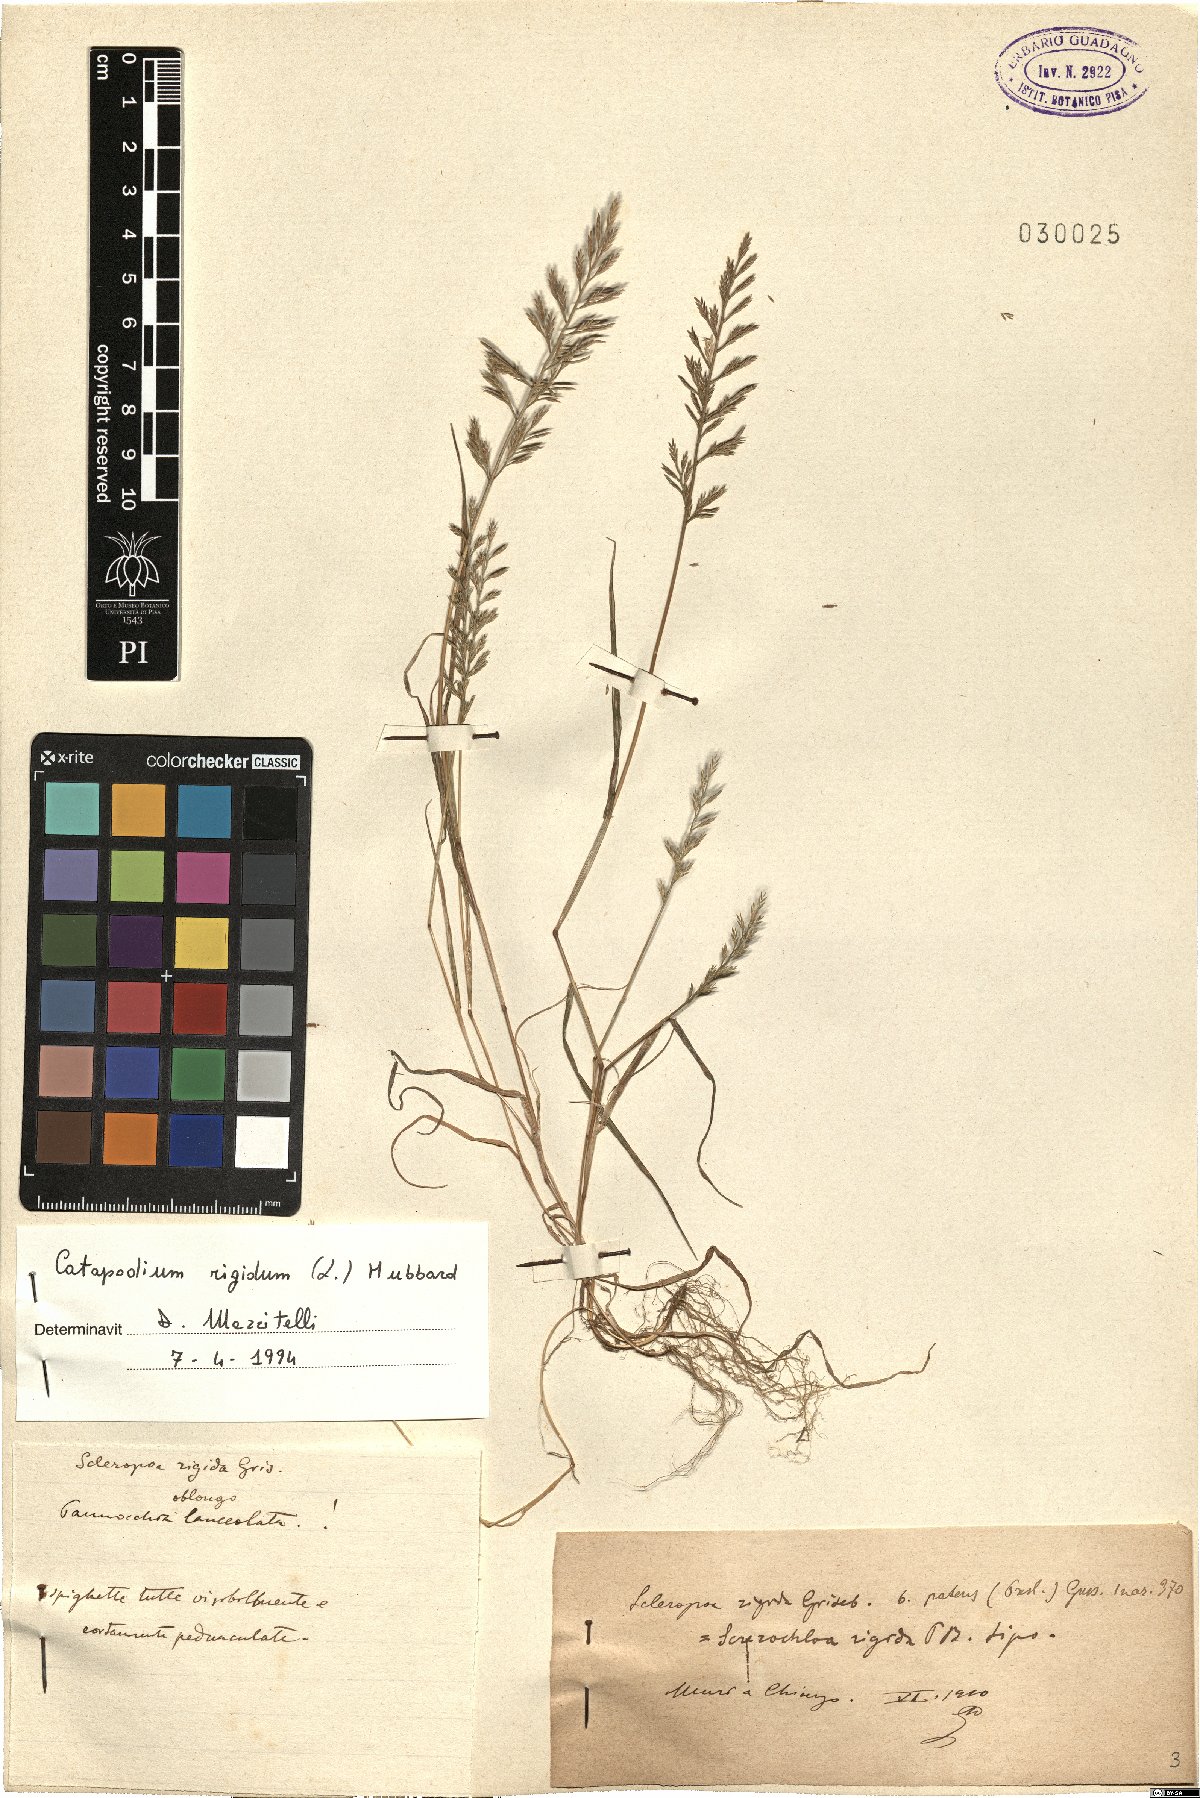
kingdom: Plantae
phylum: Tracheophyta
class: Liliopsida
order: Poales
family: Poaceae
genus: Catapodium
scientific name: Catapodium rigidum
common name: Fern-grass
